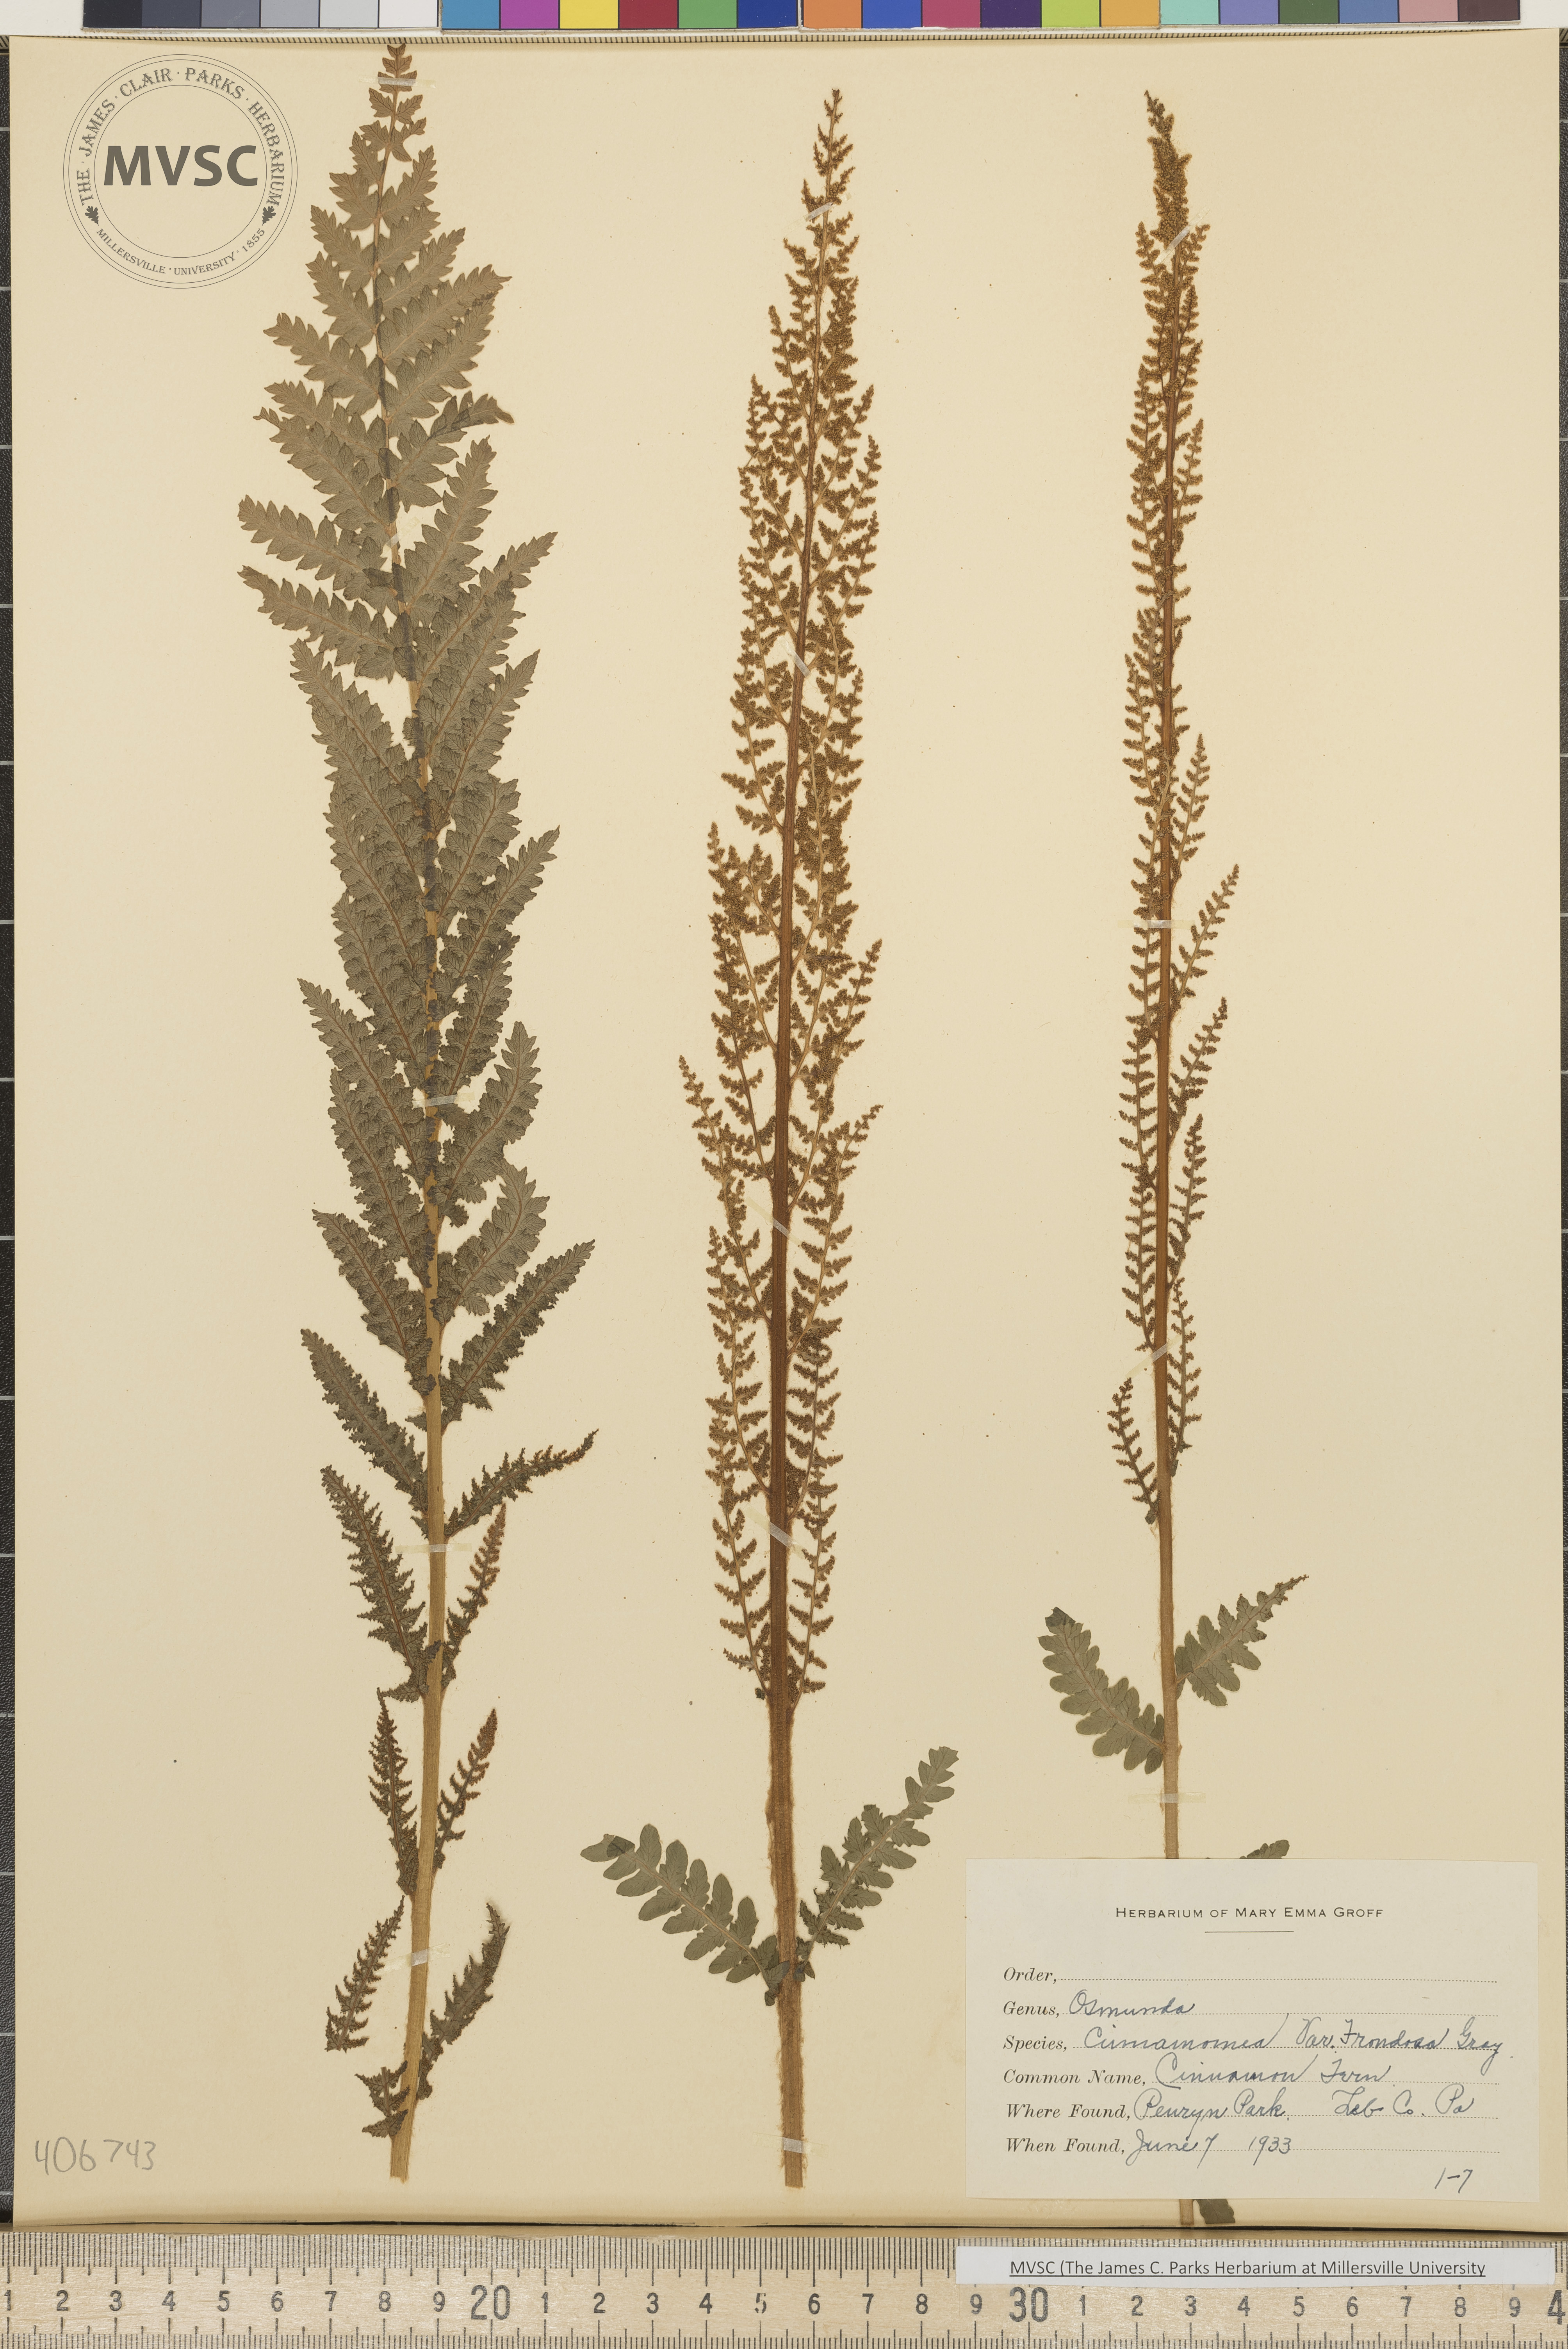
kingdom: Plantae
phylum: Tracheophyta
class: Polypodiopsida
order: Osmundales
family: Osmundaceae
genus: Osmundastrum
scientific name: Osmundastrum cinnamomeum
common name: Cinnamon fern
